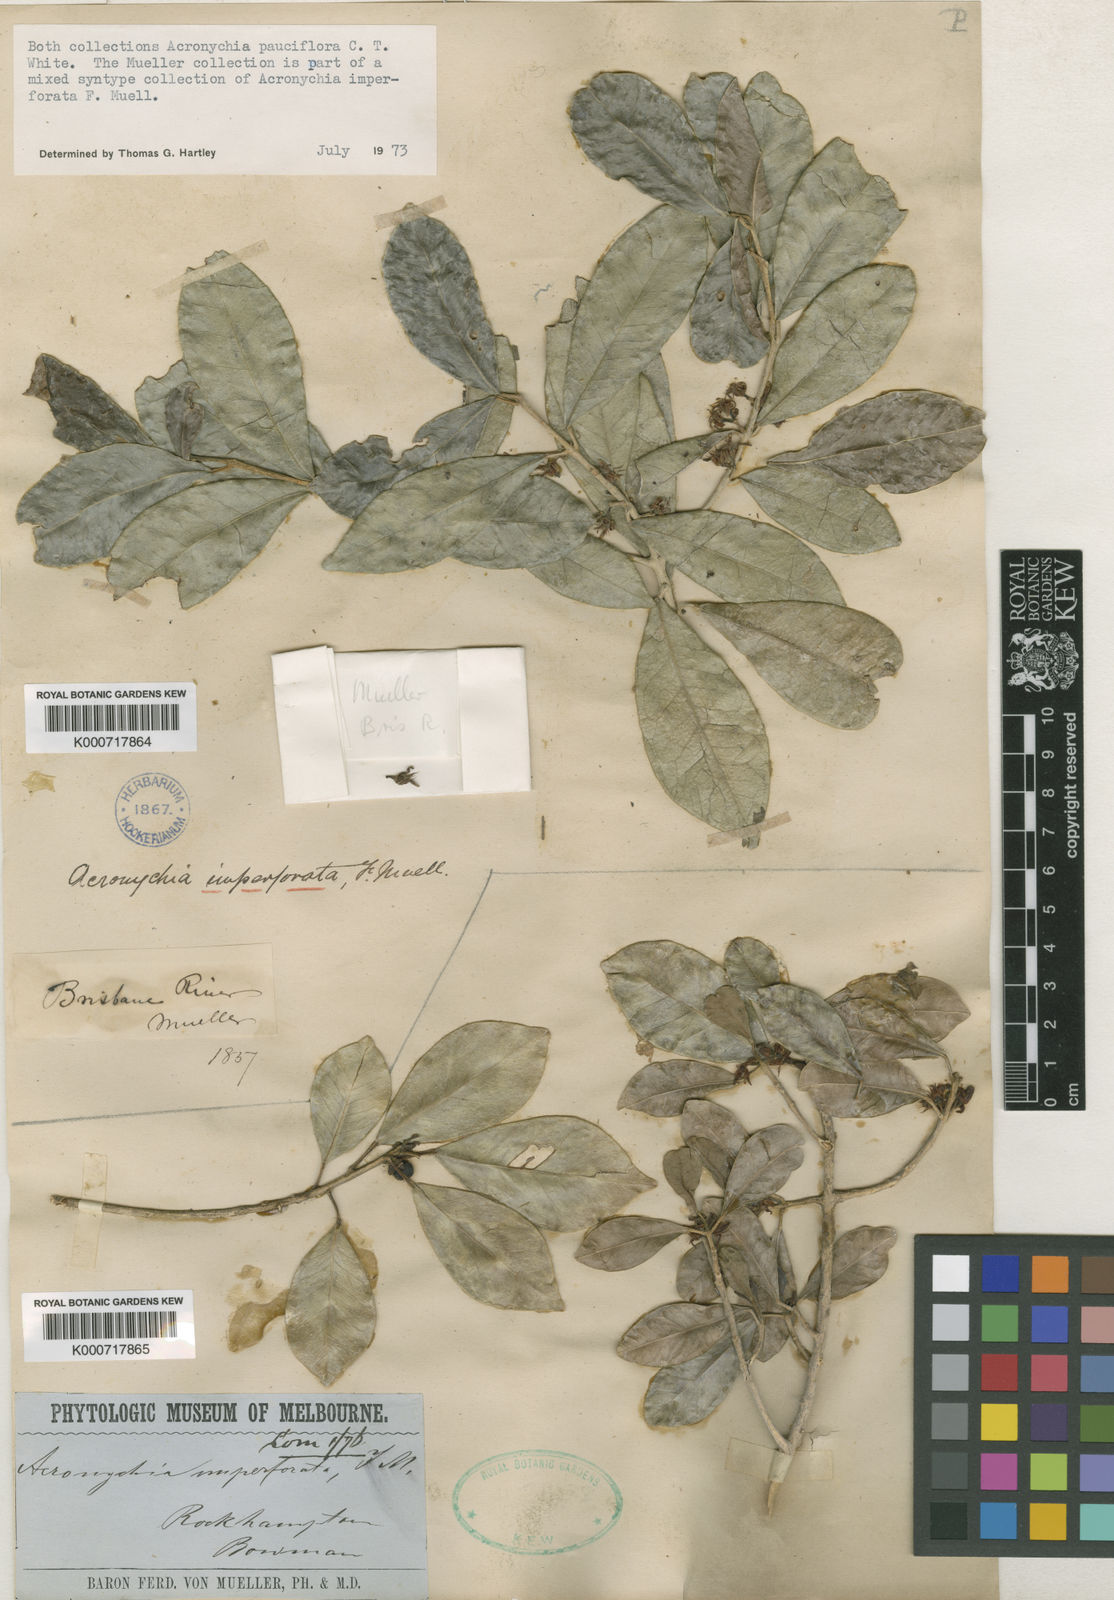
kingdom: Plantae
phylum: Tracheophyta
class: Magnoliopsida
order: Sapindales
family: Rutaceae
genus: Acronychia
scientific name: Acronychia pauciflora
